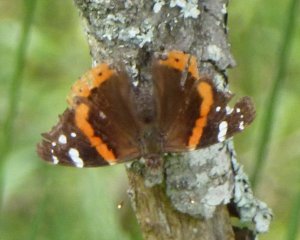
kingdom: Animalia
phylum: Arthropoda
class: Insecta
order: Lepidoptera
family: Nymphalidae
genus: Vanessa
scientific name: Vanessa atalanta
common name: Red Admiral
